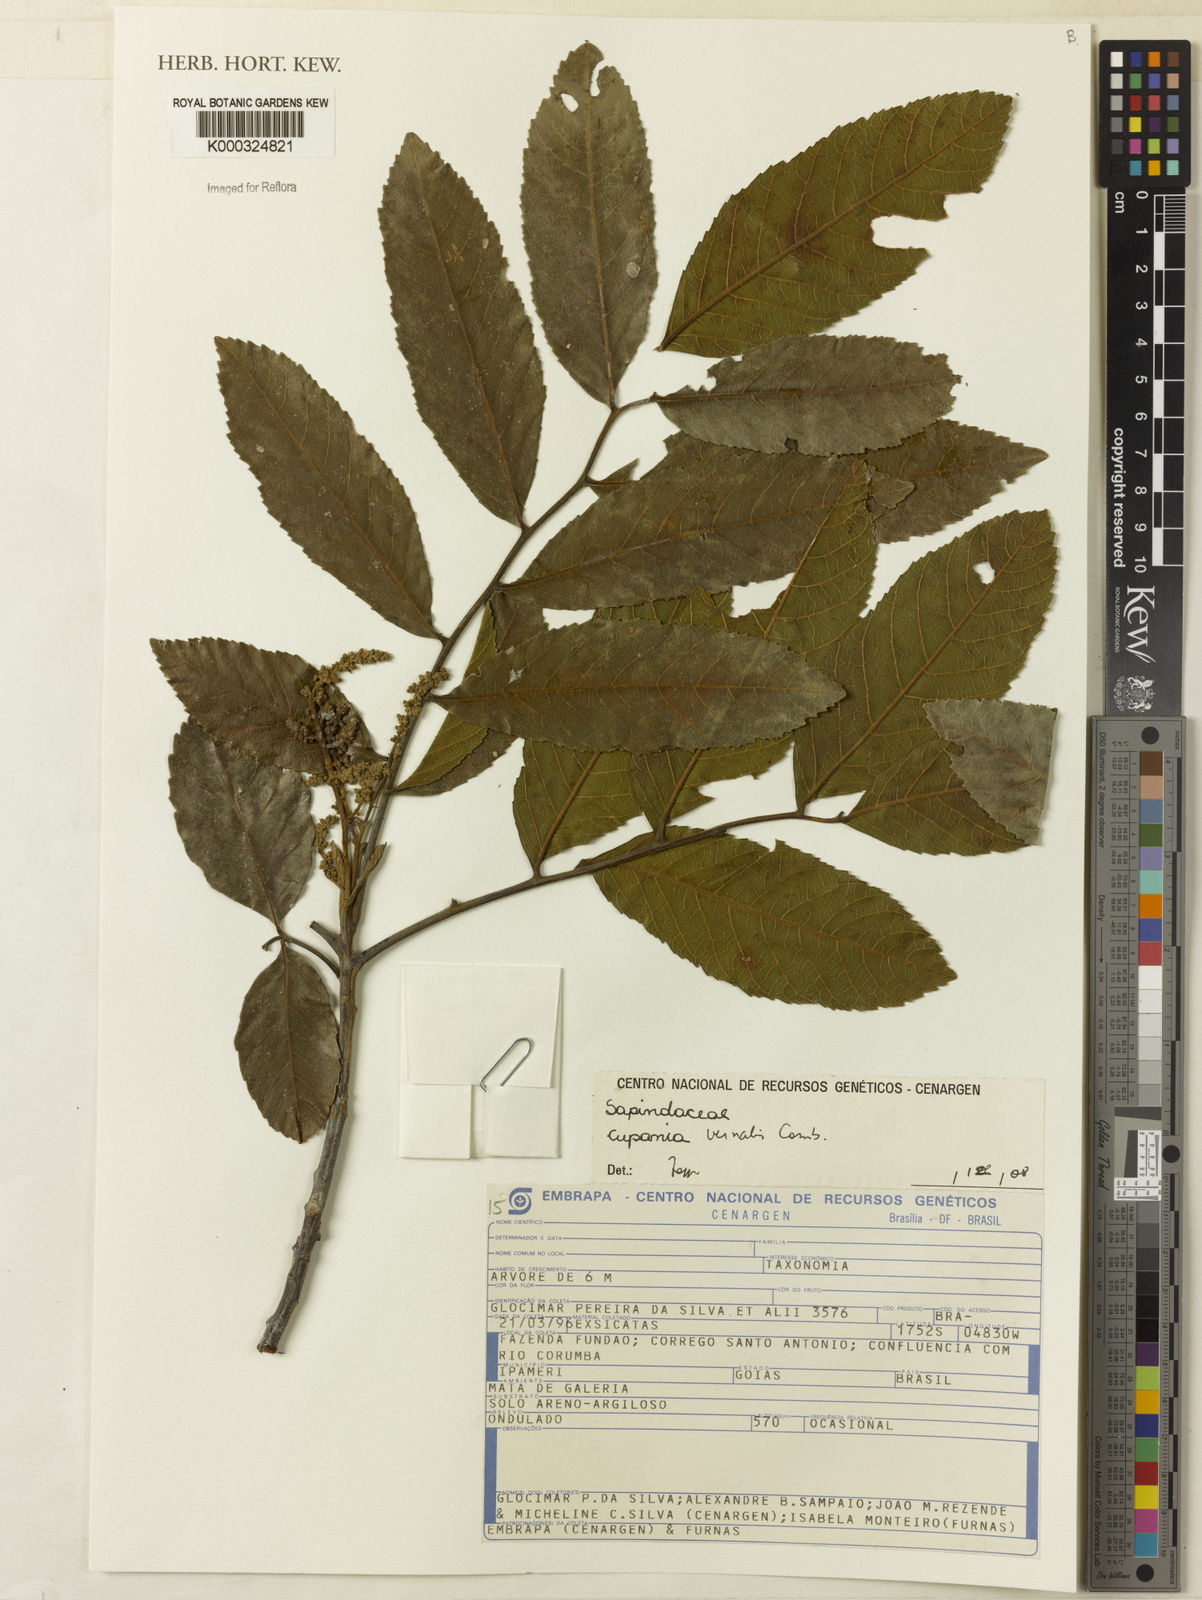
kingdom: Plantae
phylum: Tracheophyta
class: Magnoliopsida
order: Sapindales
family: Sapindaceae
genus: Cupania
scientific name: Cupania vernalis
